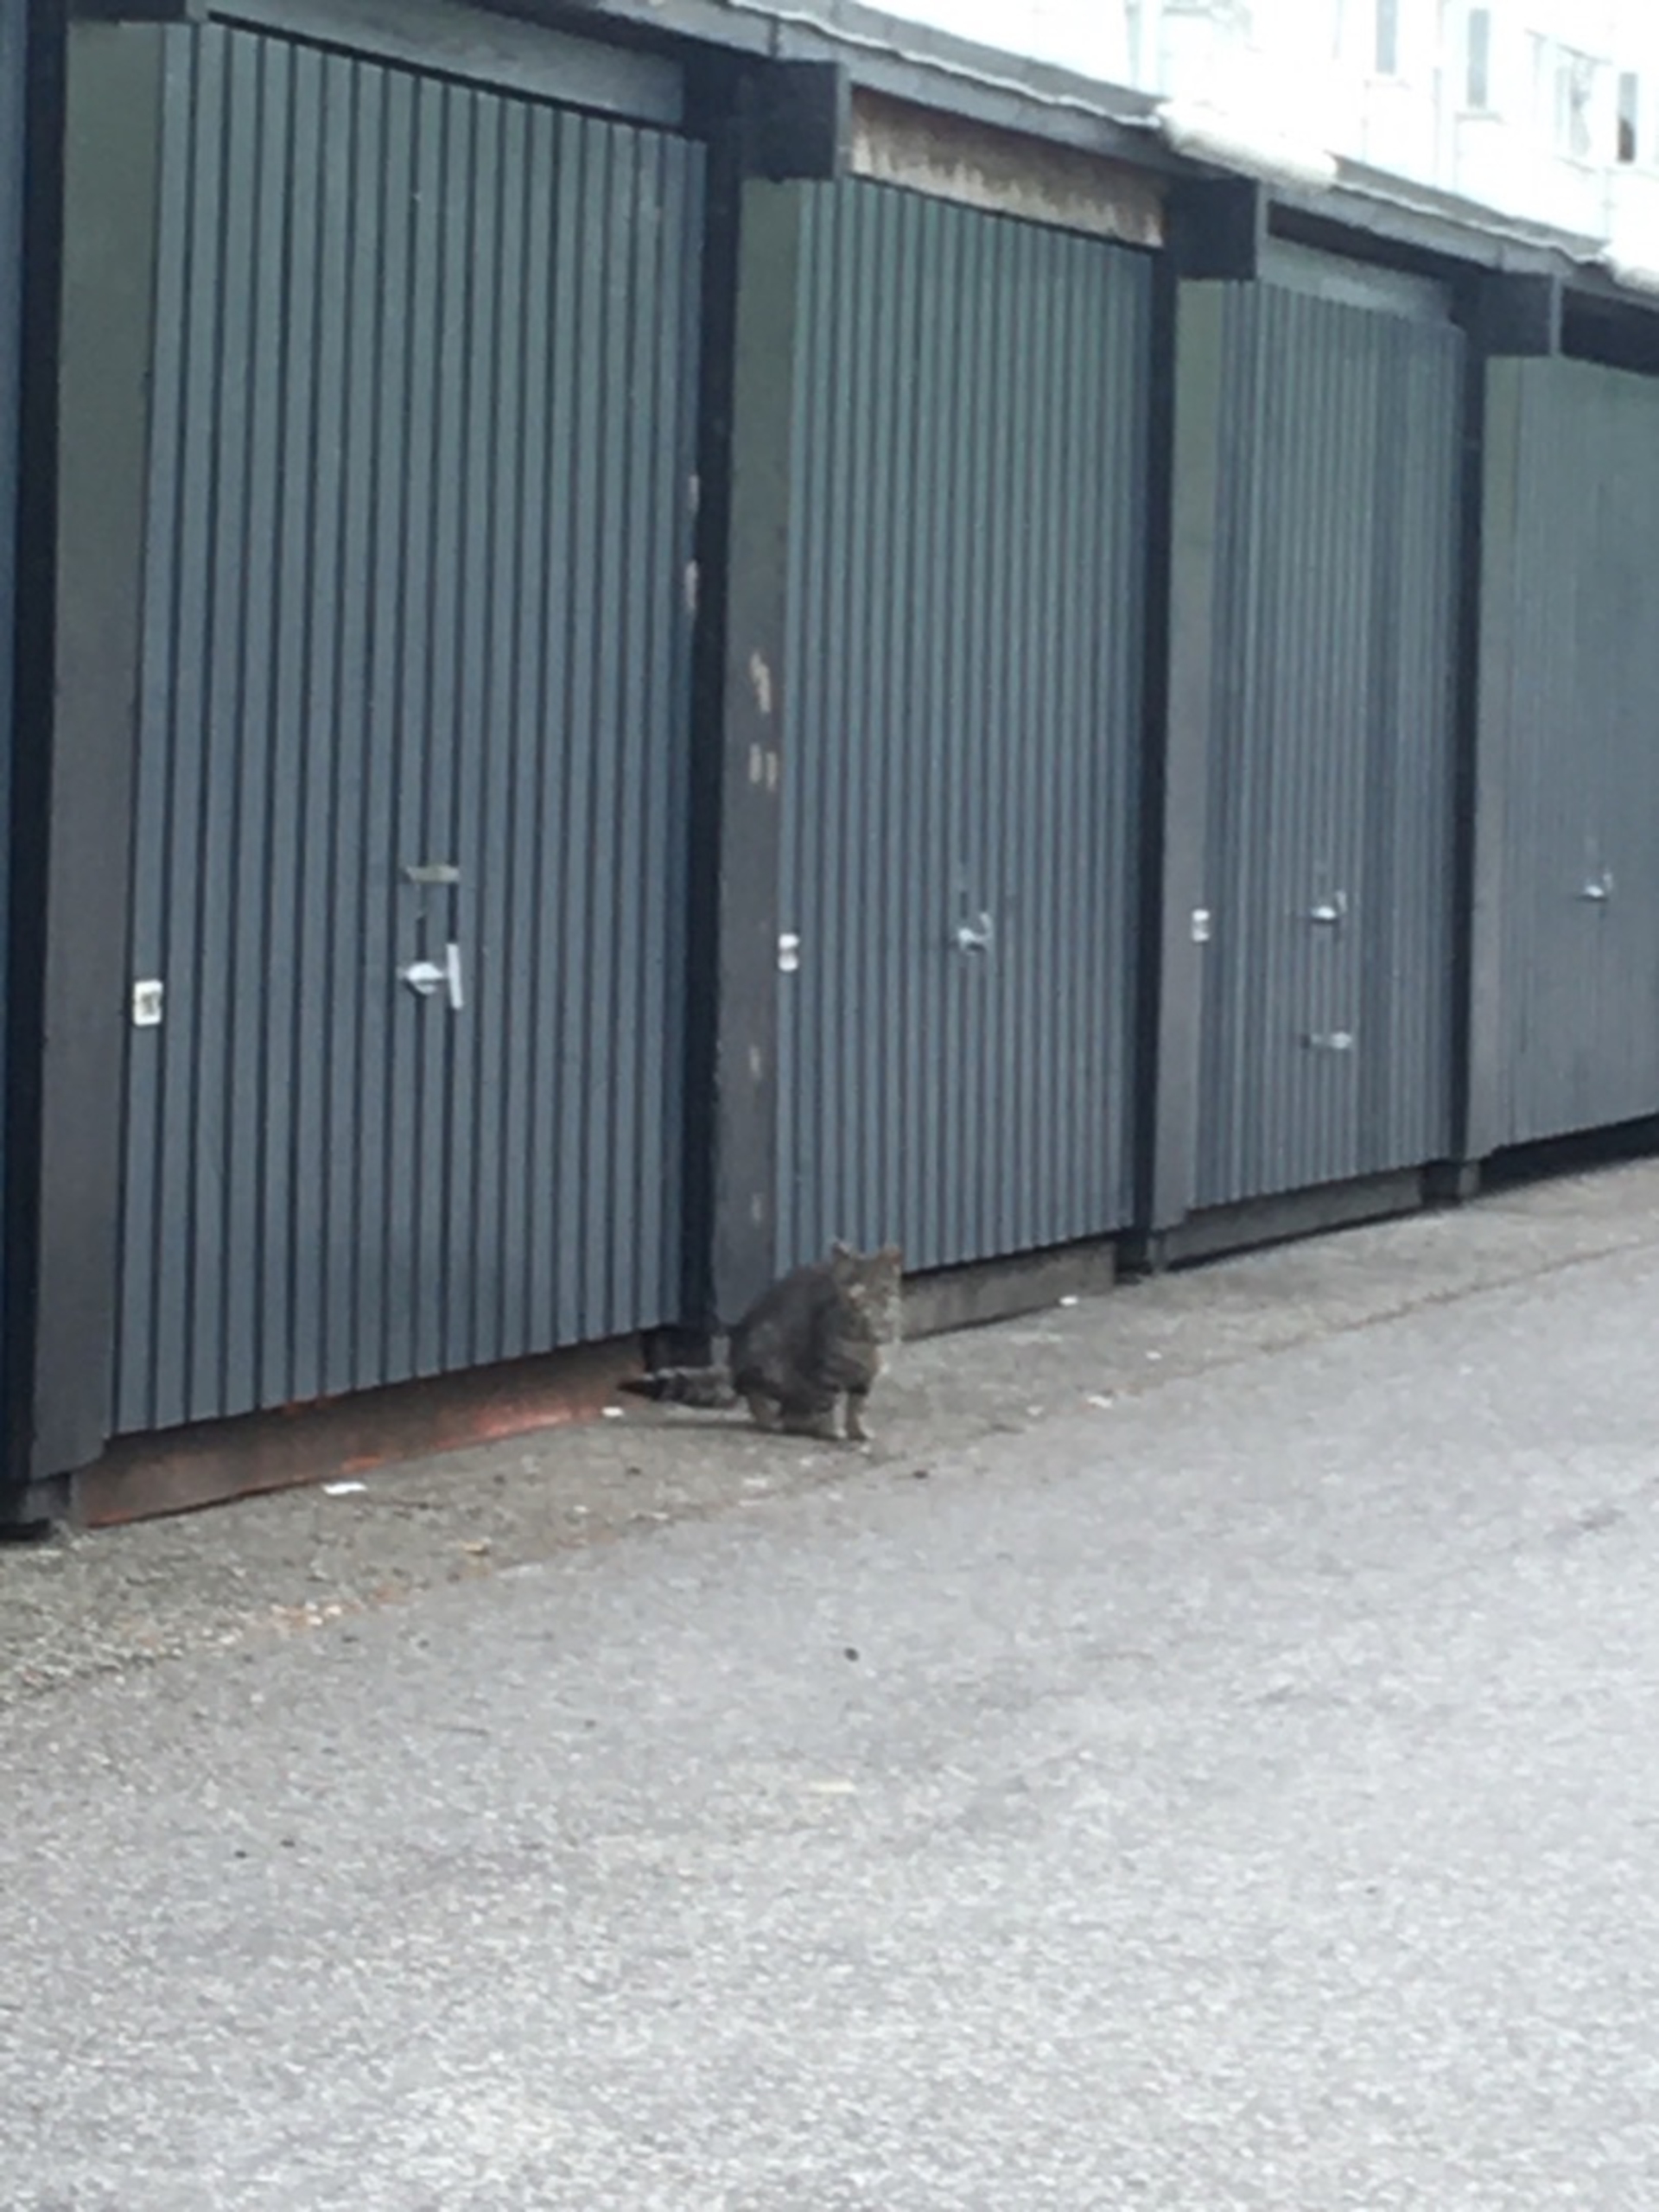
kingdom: Animalia
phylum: Chordata
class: Mammalia
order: Carnivora
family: Felidae
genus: Felis
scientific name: Felis catus
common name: Tamkat
